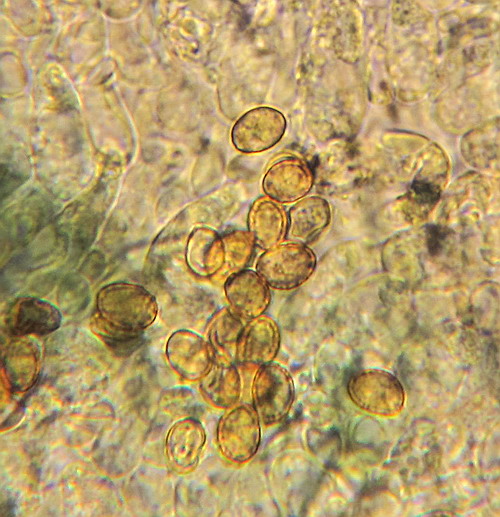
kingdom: Fungi
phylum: Basidiomycota
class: Agaricomycetes
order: Agaricales
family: Cortinariaceae
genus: Cortinarius
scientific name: Cortinarius valgus
